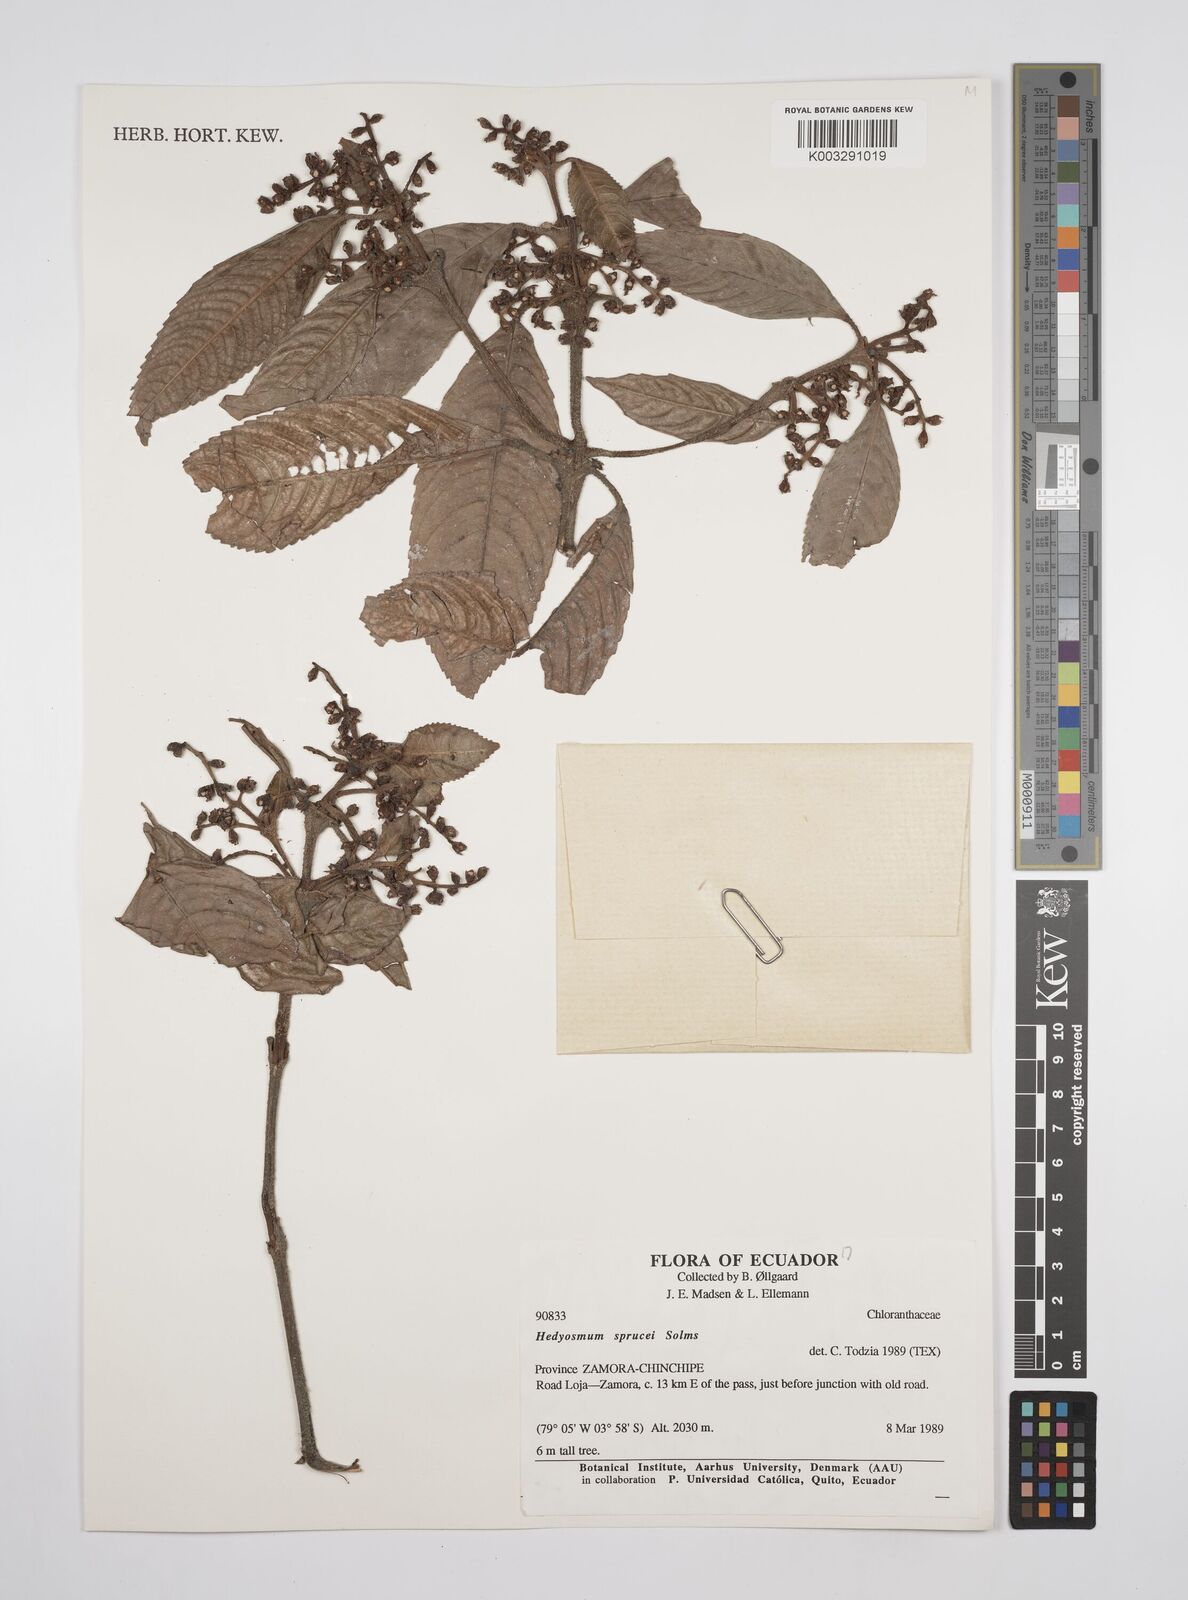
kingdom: Plantae
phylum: Tracheophyta
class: Magnoliopsida
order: Chloranthales
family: Chloranthaceae
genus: Hedyosmum
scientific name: Hedyosmum sprucei
